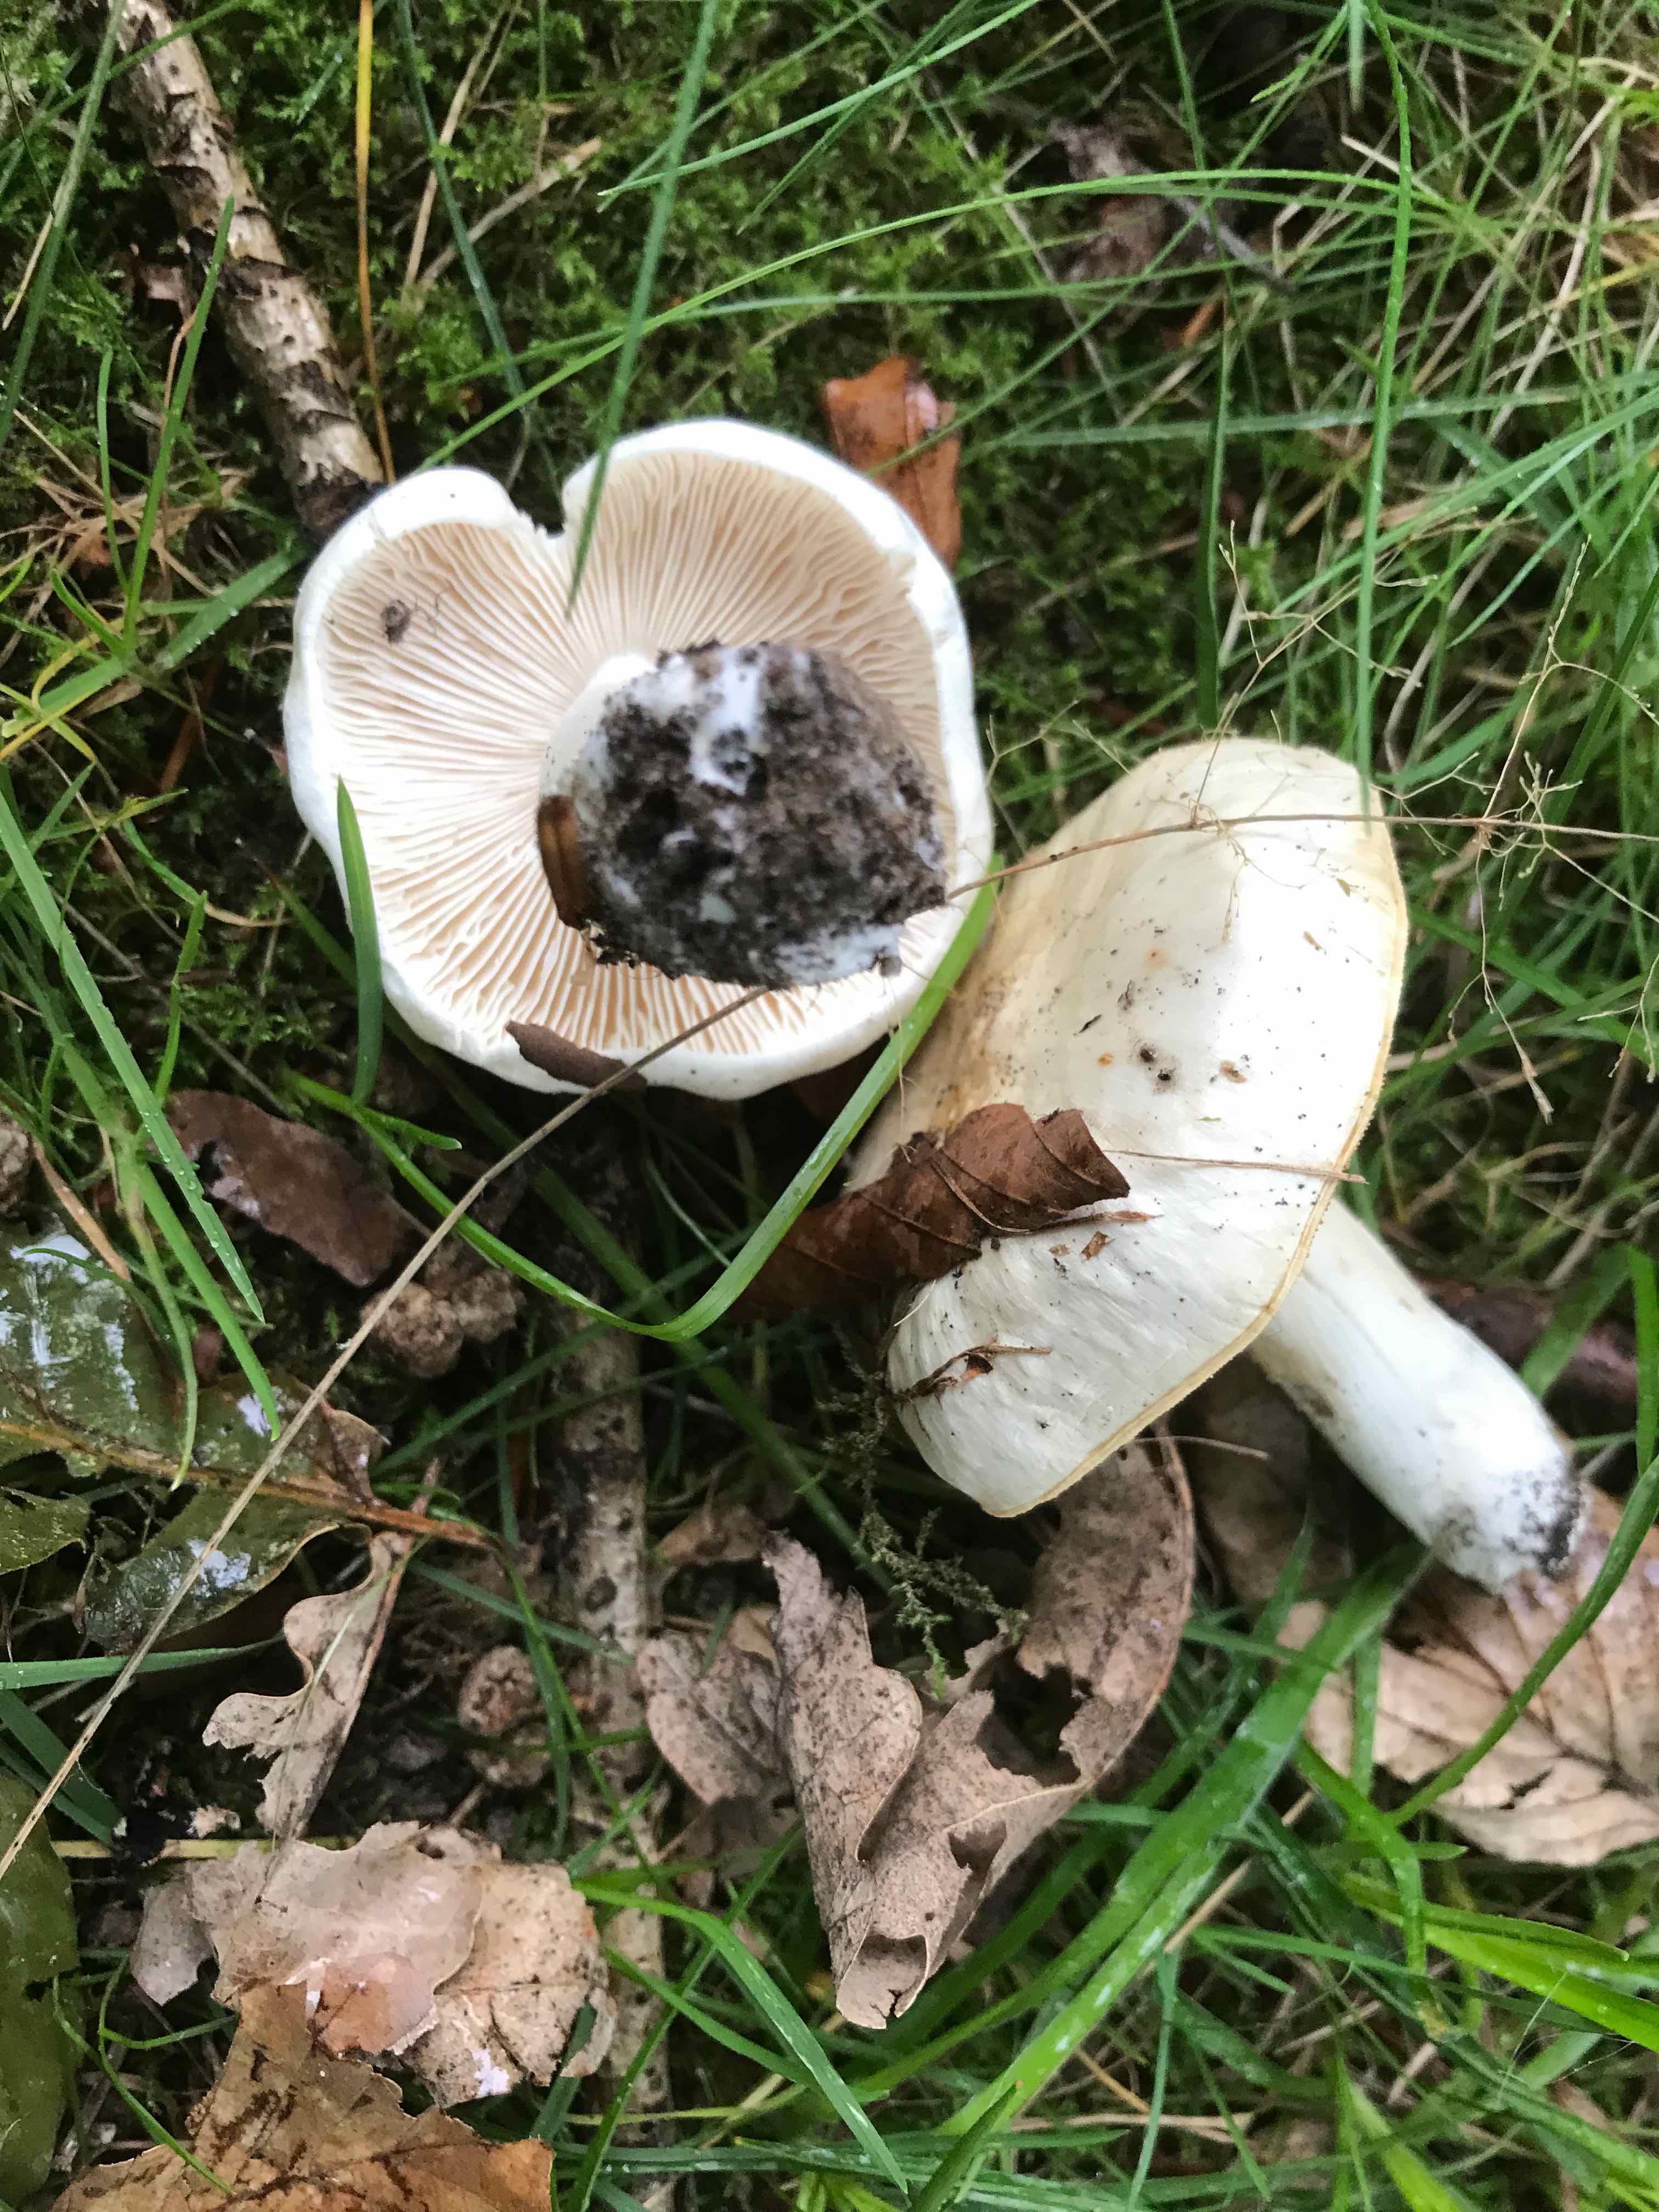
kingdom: Fungi
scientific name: Fungi
